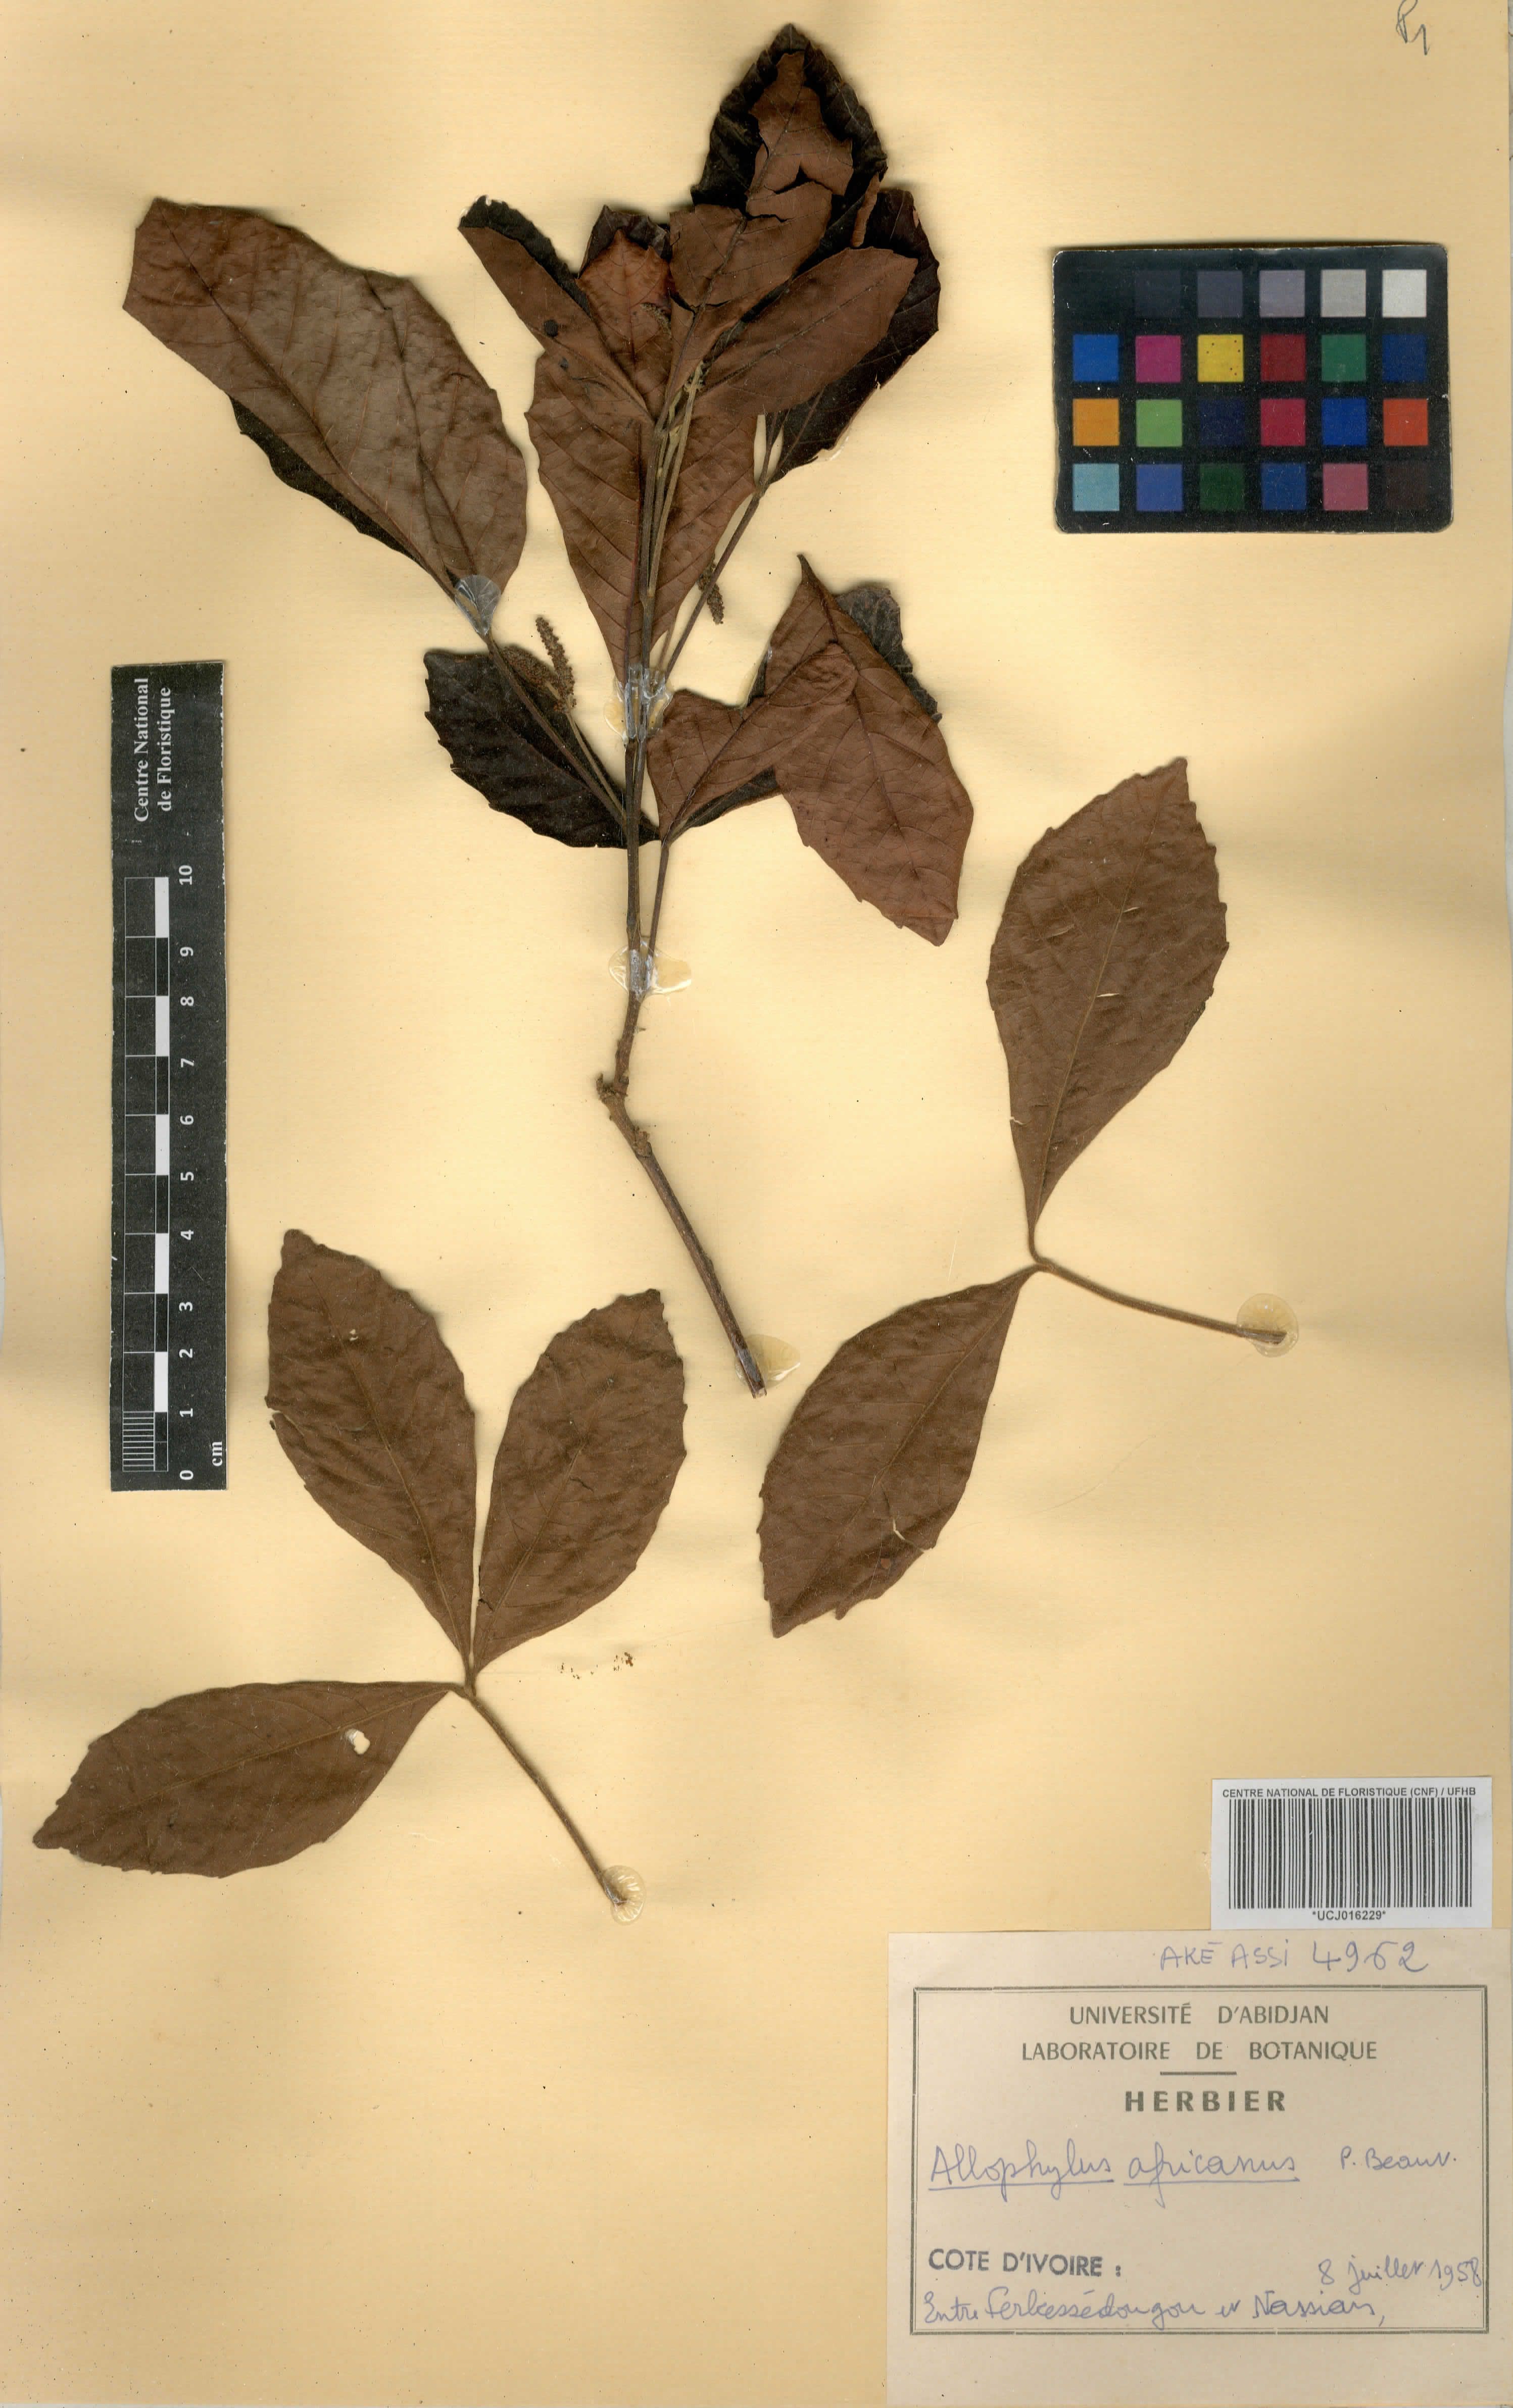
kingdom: Plantae
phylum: Tracheophyta
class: Magnoliopsida
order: Sapindales
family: Sapindaceae
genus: Allophylus
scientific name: Allophylus africanus
